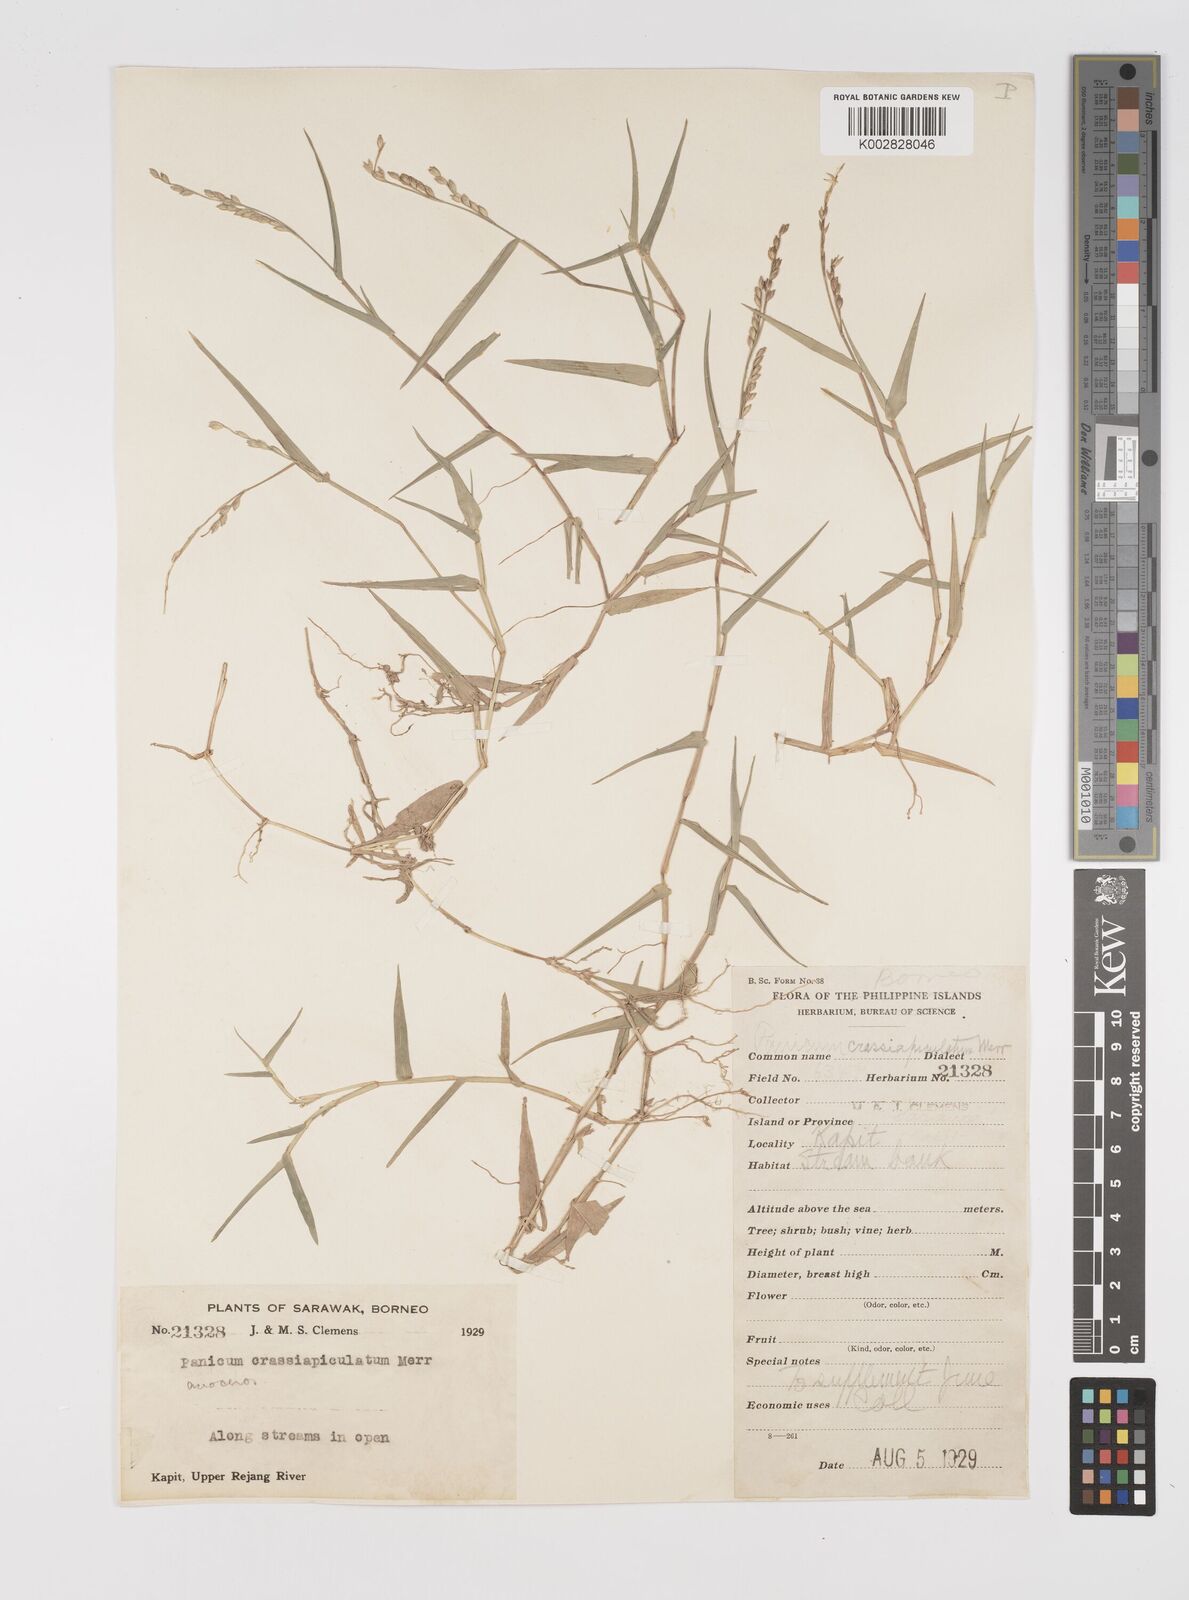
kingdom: Plantae
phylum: Tracheophyta
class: Liliopsida
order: Poales
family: Poaceae
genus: Acroceras
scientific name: Acroceras munroanum
